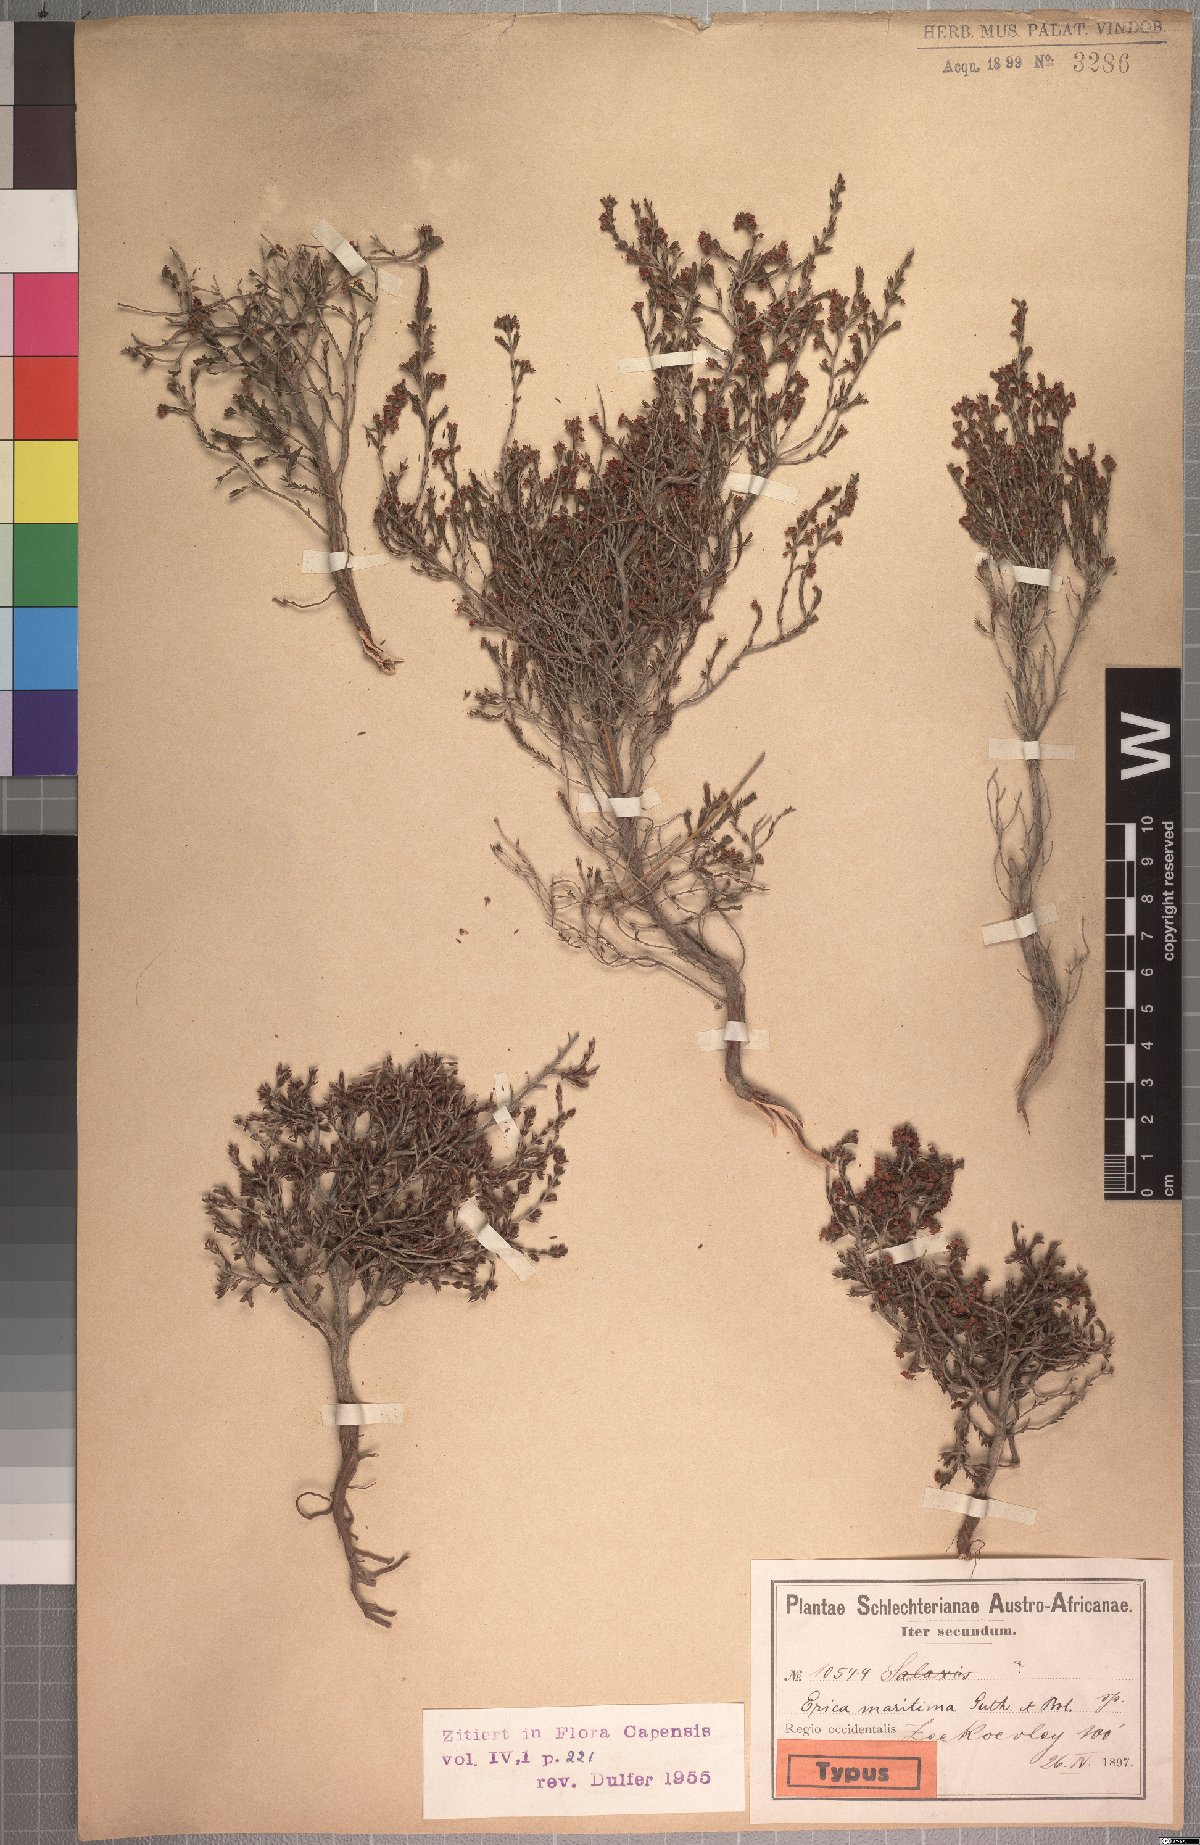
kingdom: Plantae
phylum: Tracheophyta
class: Magnoliopsida
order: Ericales
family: Ericaceae
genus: Erica
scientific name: Erica maritima
